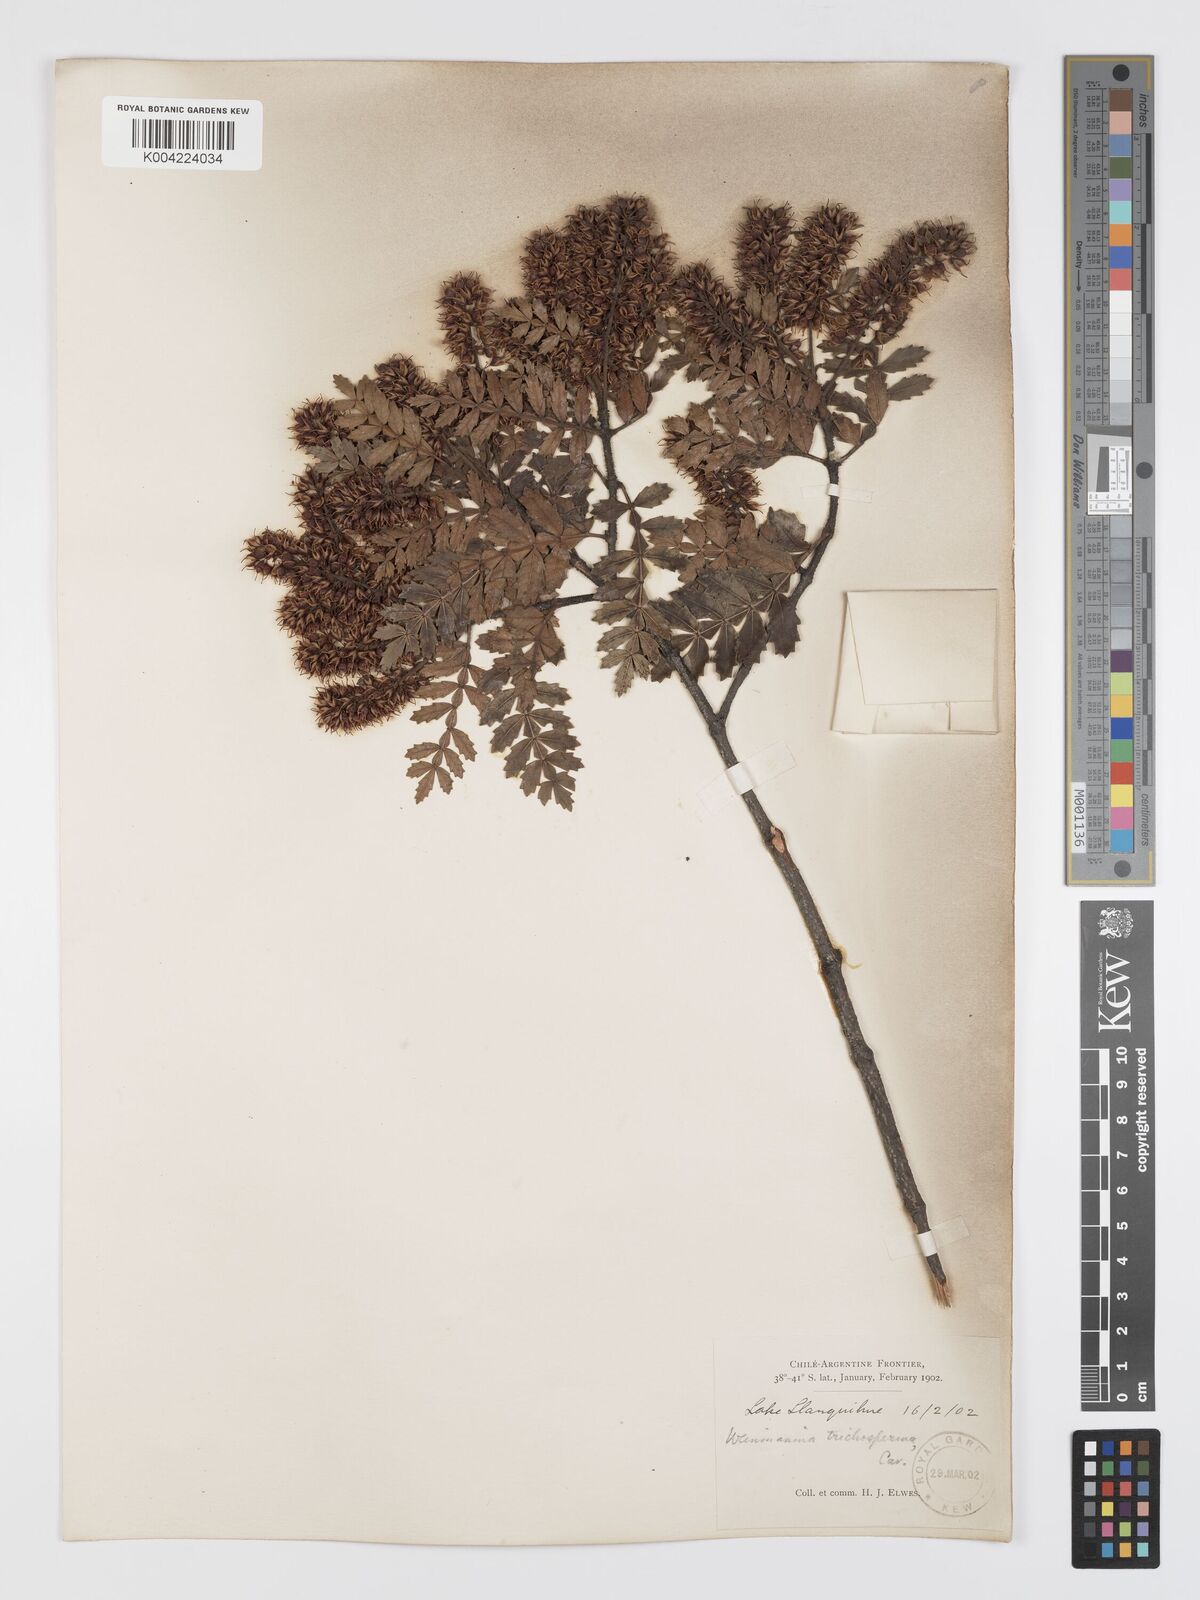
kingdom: Plantae
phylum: Tracheophyta
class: Magnoliopsida
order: Oxalidales
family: Cunoniaceae
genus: Weinmannia
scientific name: Weinmannia trichosperma
